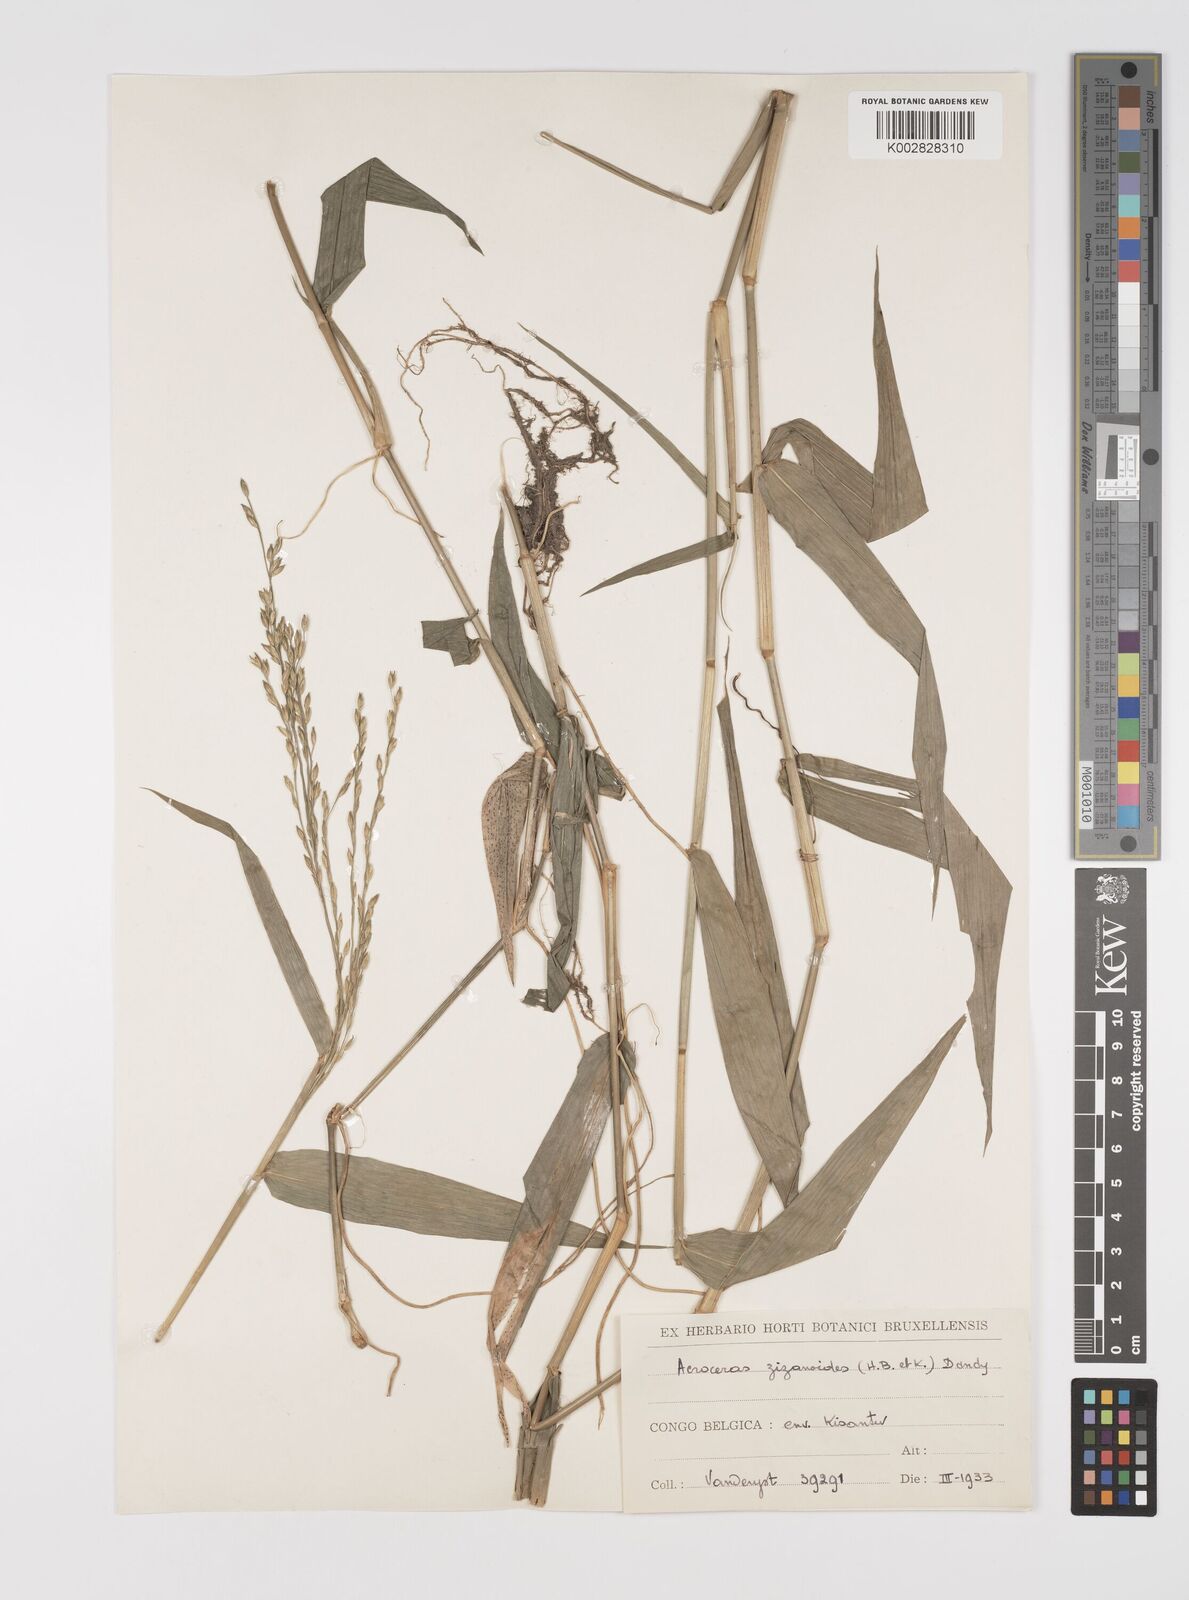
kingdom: Plantae
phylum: Tracheophyta
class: Liliopsida
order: Poales
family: Poaceae
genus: Acroceras
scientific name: Acroceras zizanioides
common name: Oat grass
